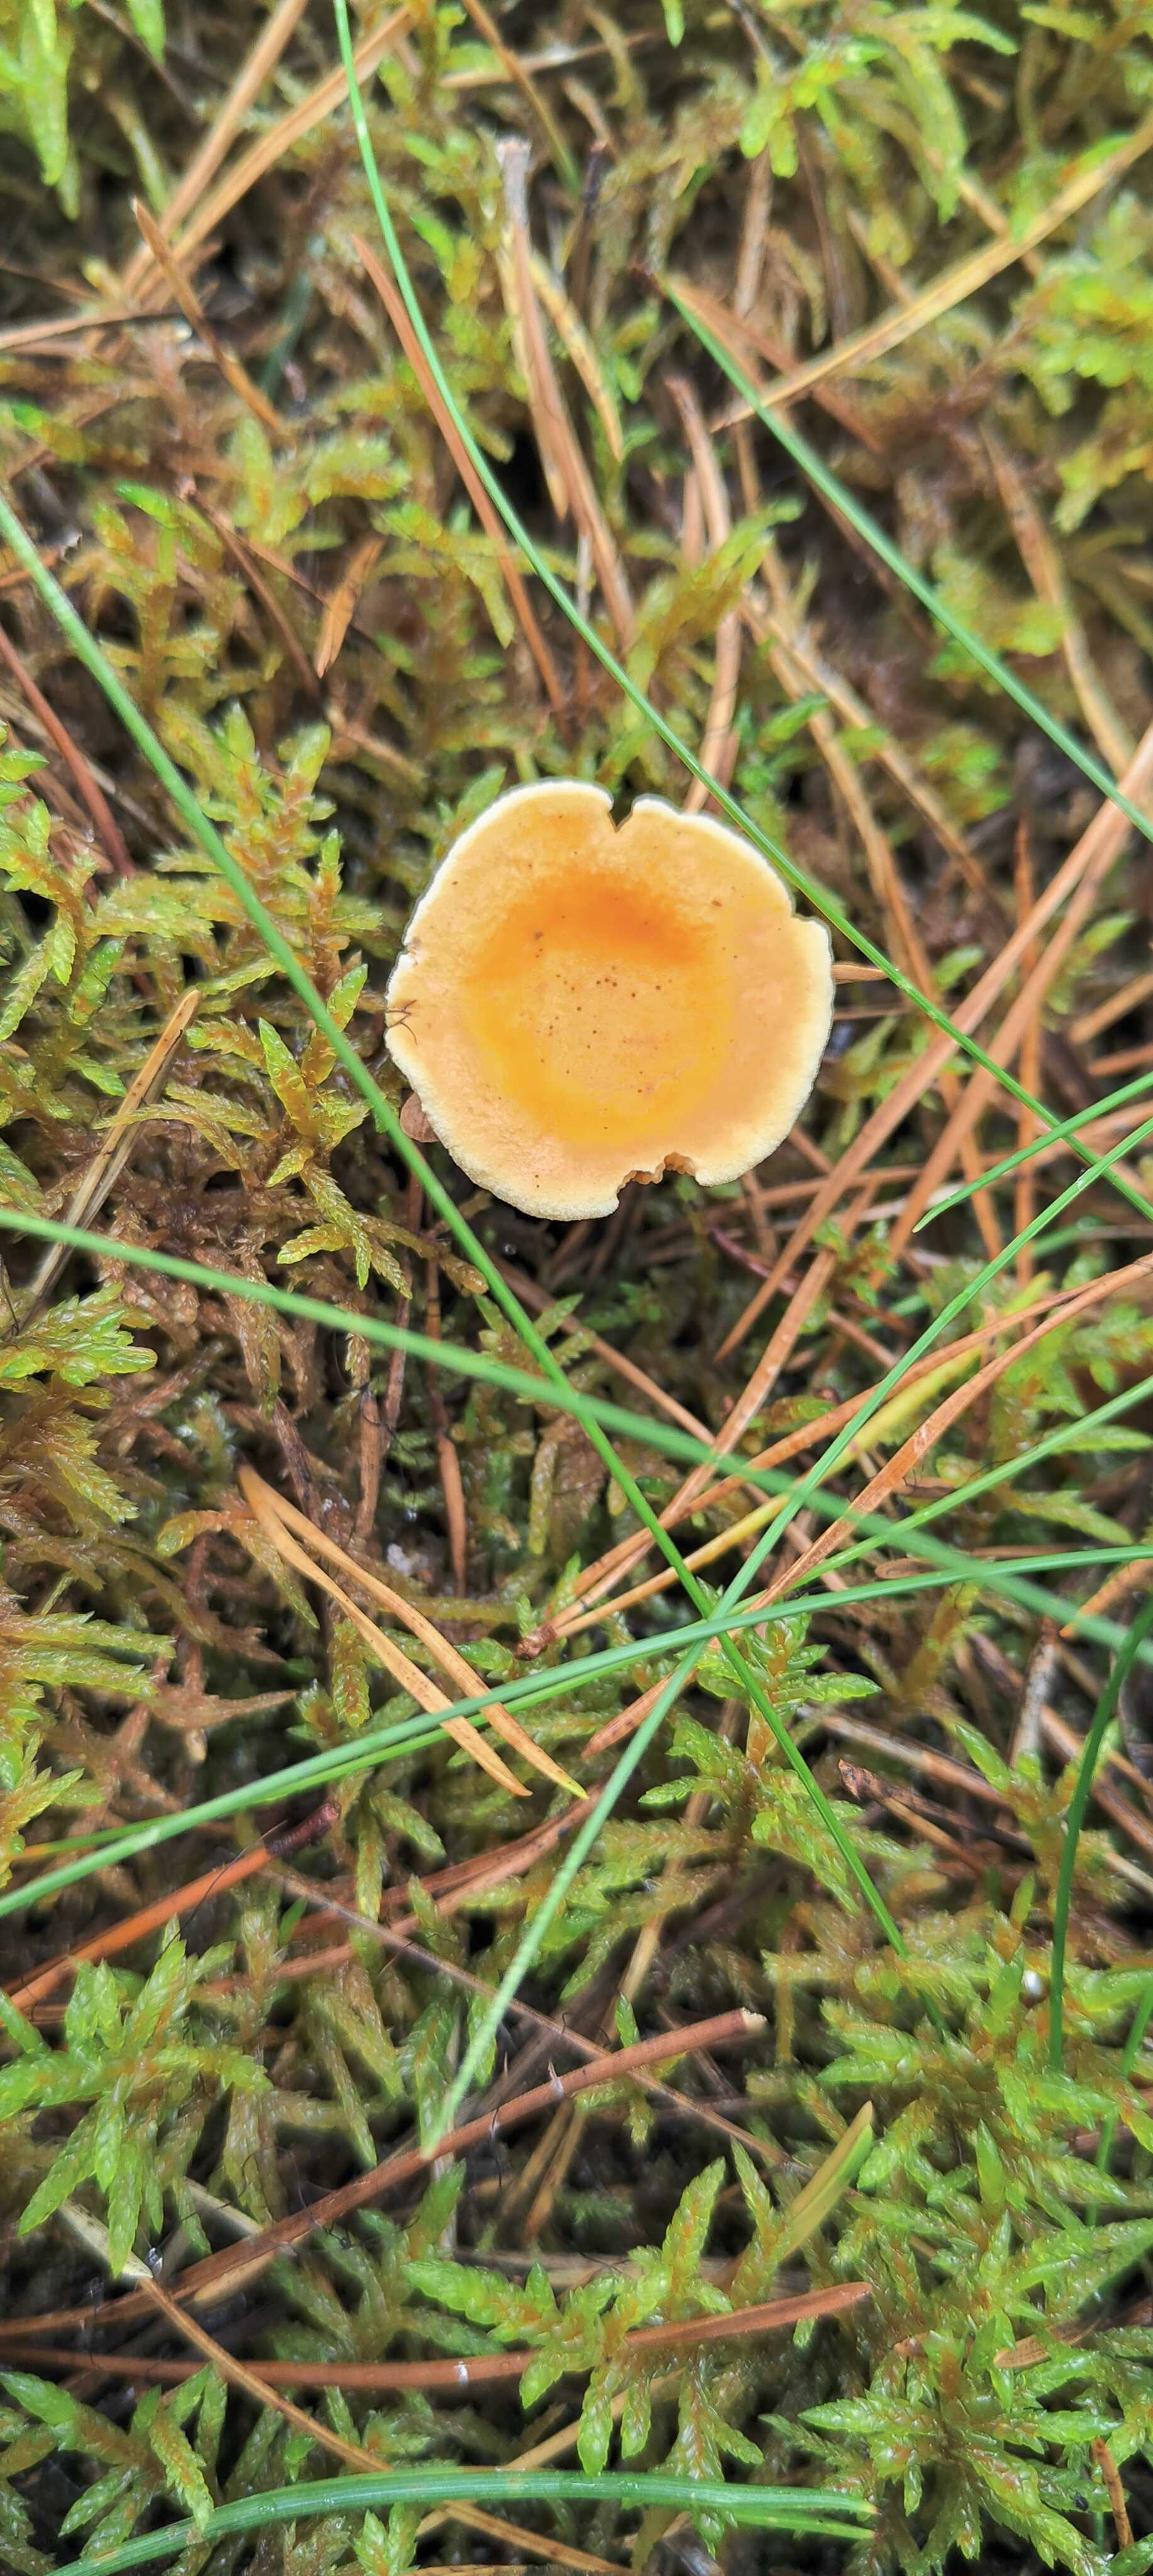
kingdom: Fungi
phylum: Basidiomycota
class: Agaricomycetes
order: Boletales
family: Hygrophoropsidaceae
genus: Hygrophoropsis
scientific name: Hygrophoropsis aurantiaca
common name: almindelig orangekantarel
